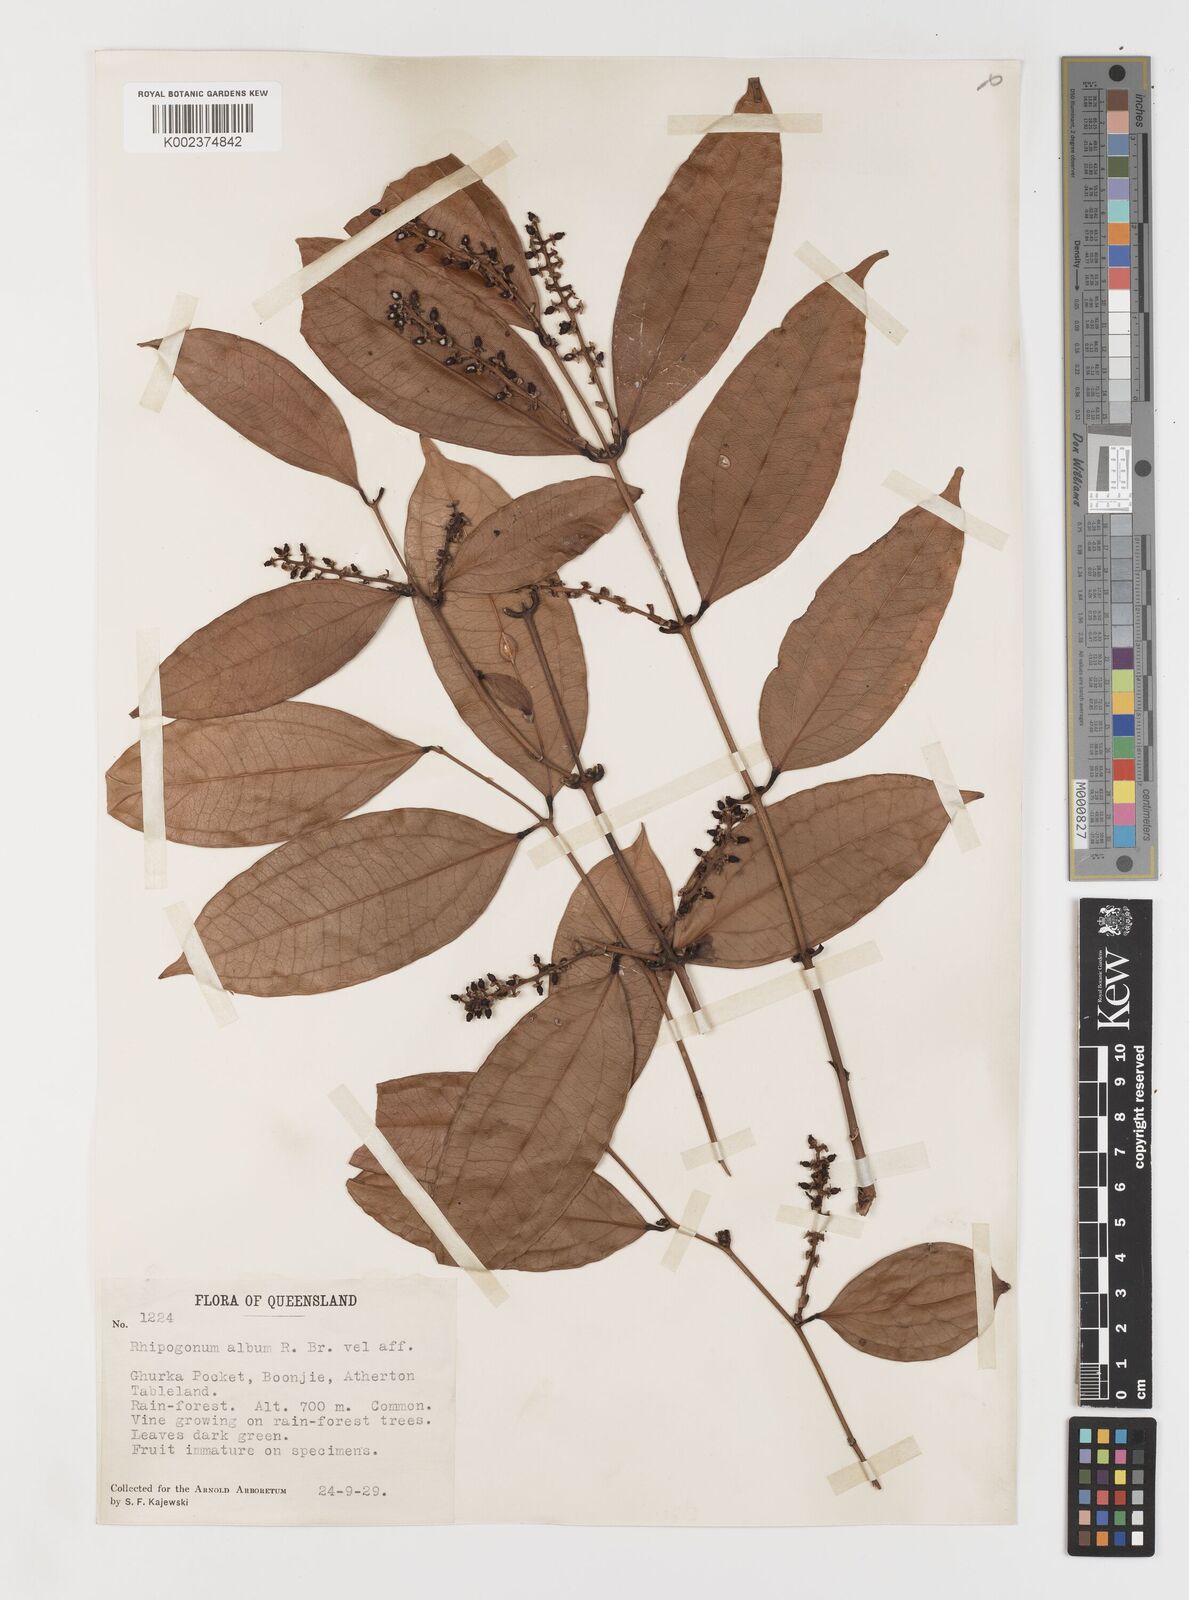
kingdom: Plantae
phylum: Tracheophyta
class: Liliopsida
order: Liliales
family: Ripogonaceae
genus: Ripogonum
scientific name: Ripogonum album
